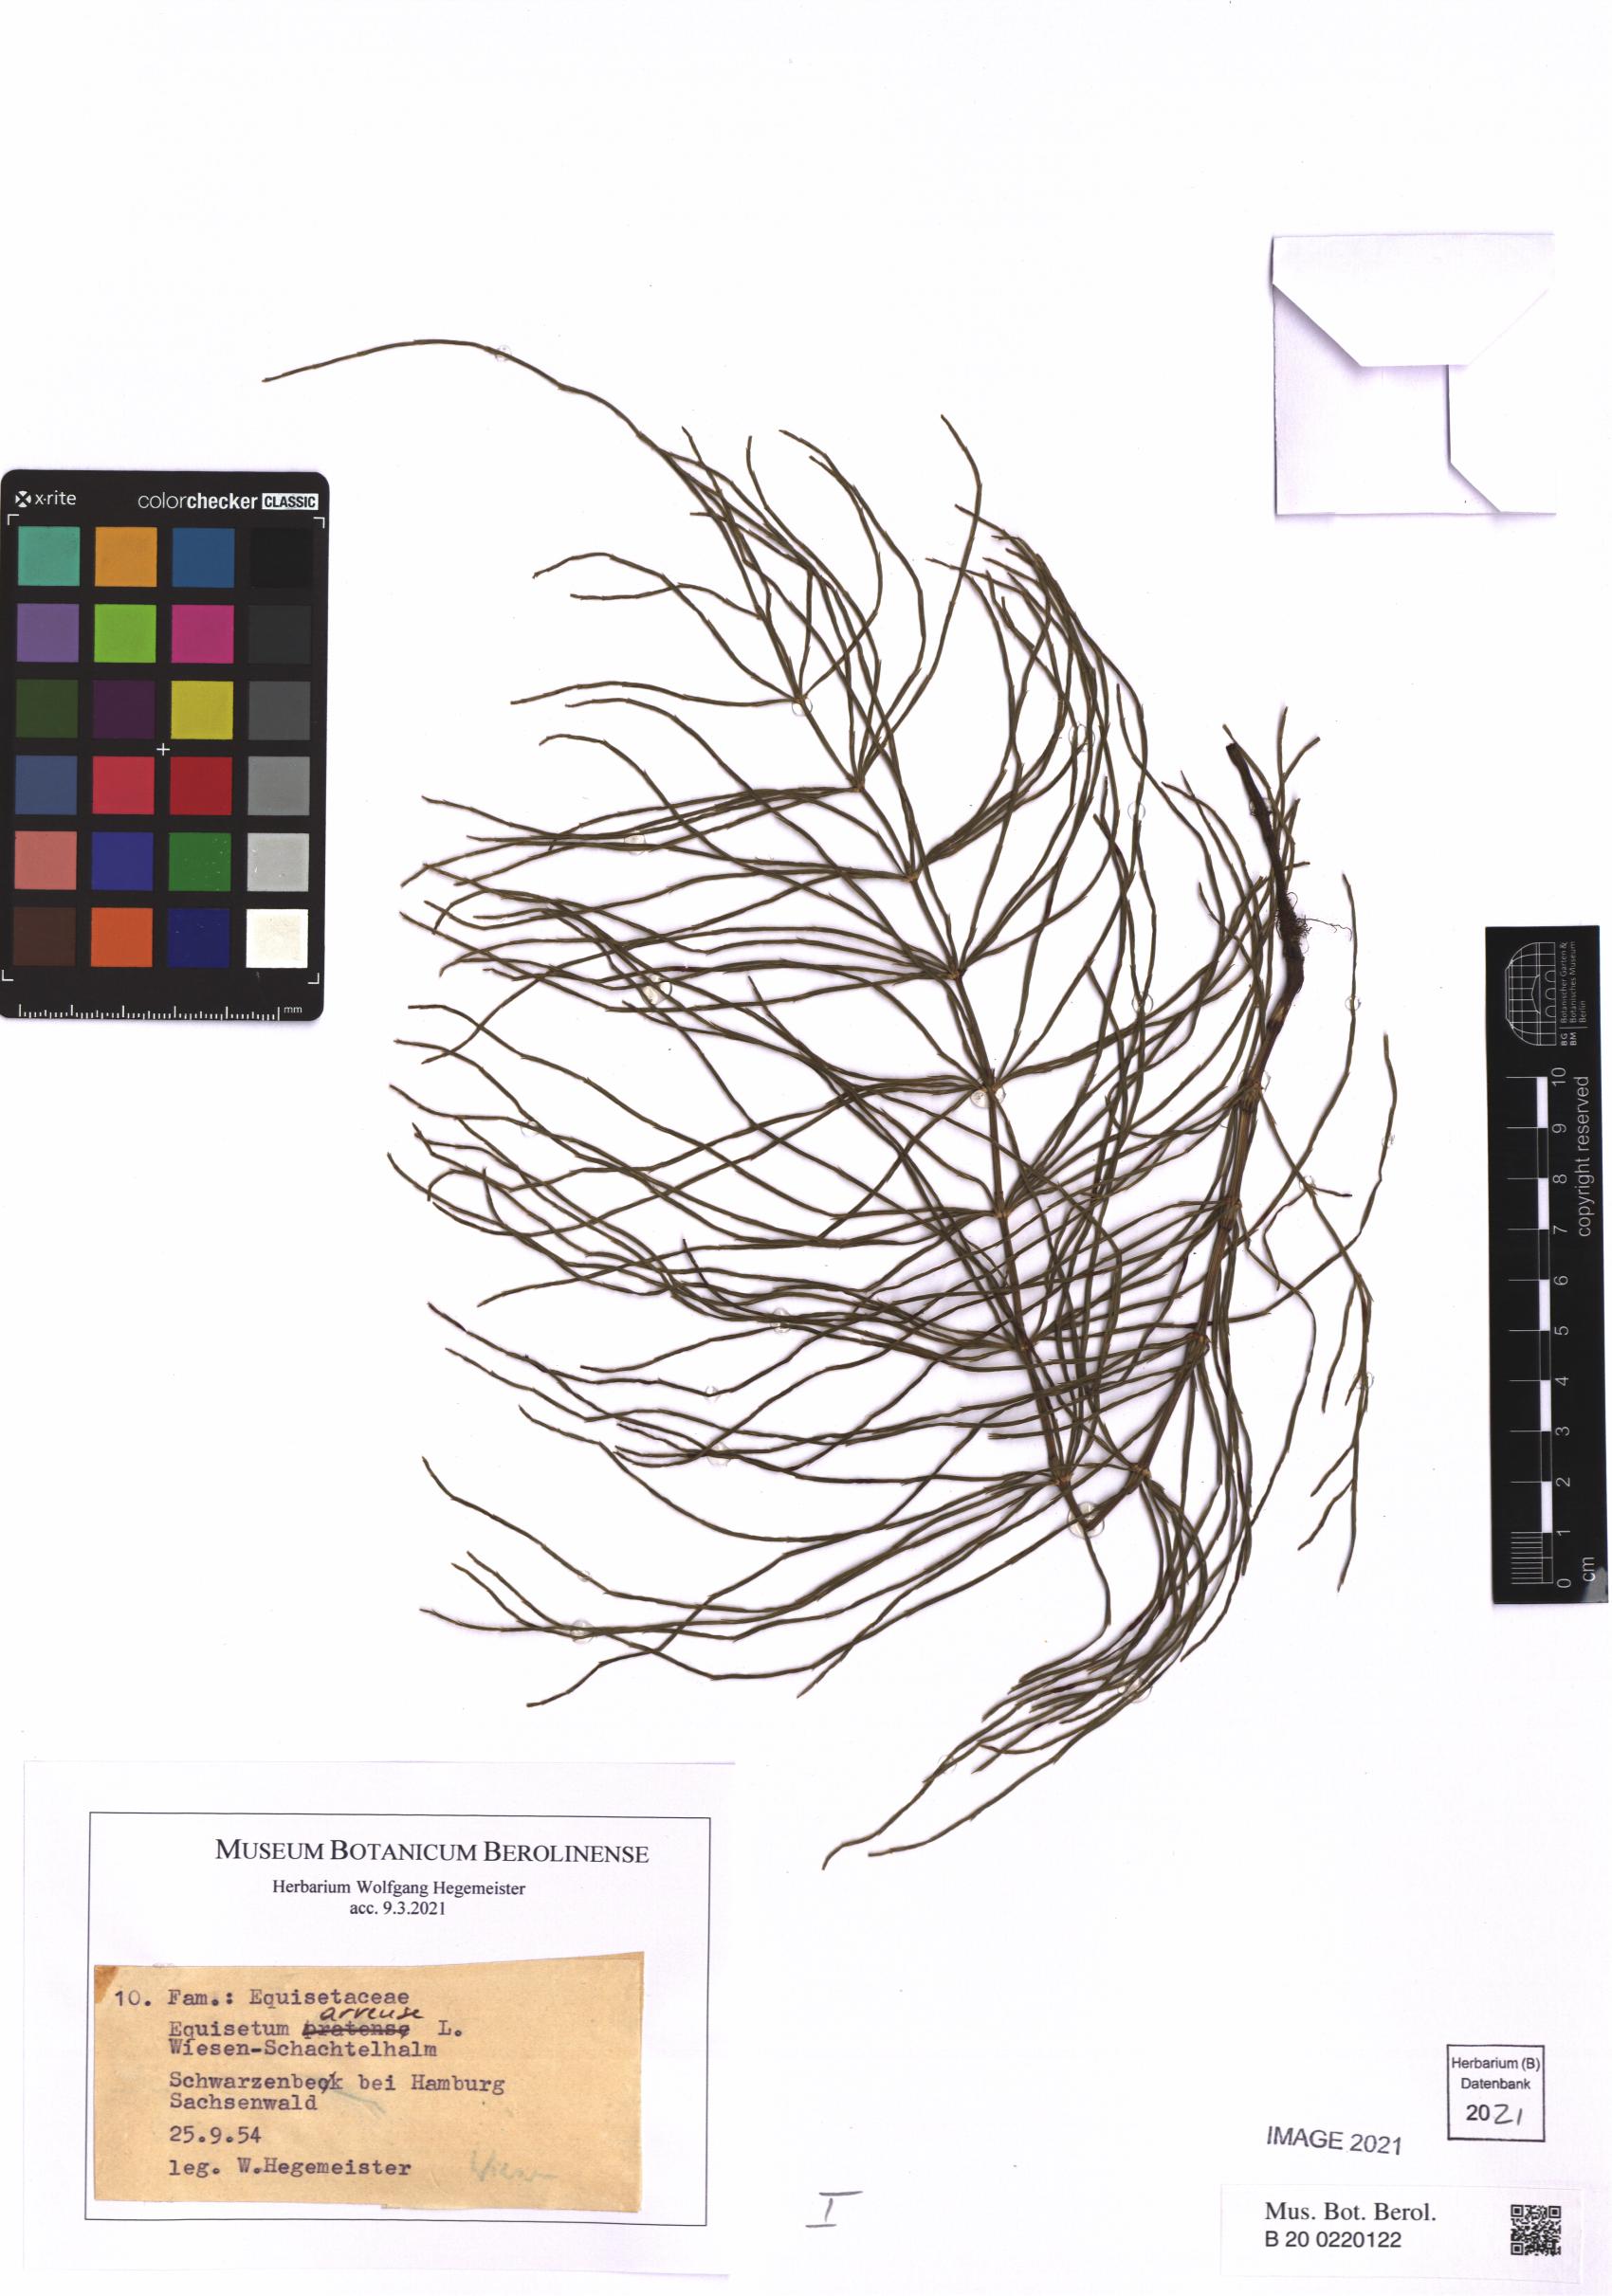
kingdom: Plantae
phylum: Tracheophyta
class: Polypodiopsida
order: Equisetales
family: Equisetaceae
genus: Equisetum
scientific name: Equisetum arvense
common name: Field horsetail
